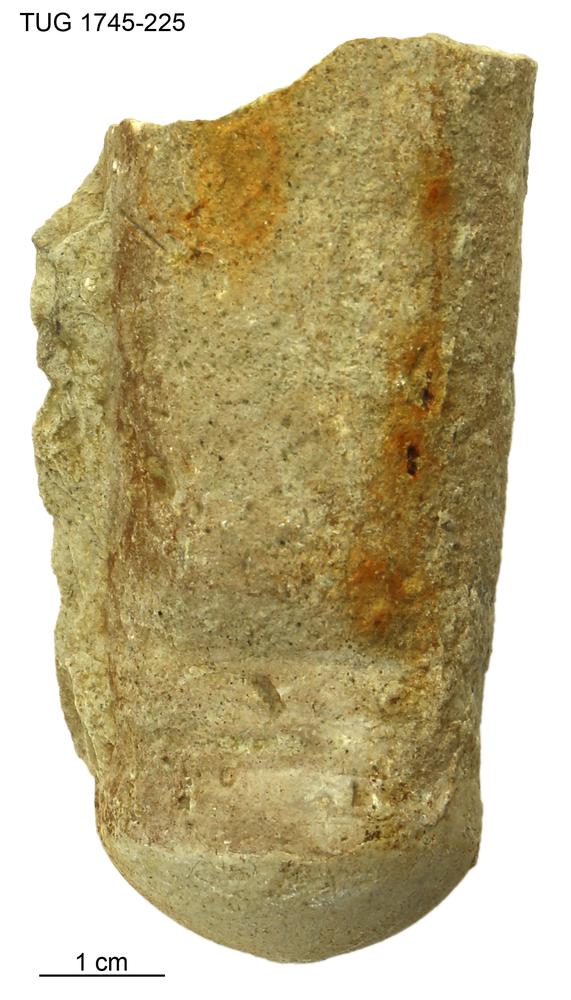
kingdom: Animalia
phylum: Mollusca
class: Cephalopoda
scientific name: Cephalopoda
